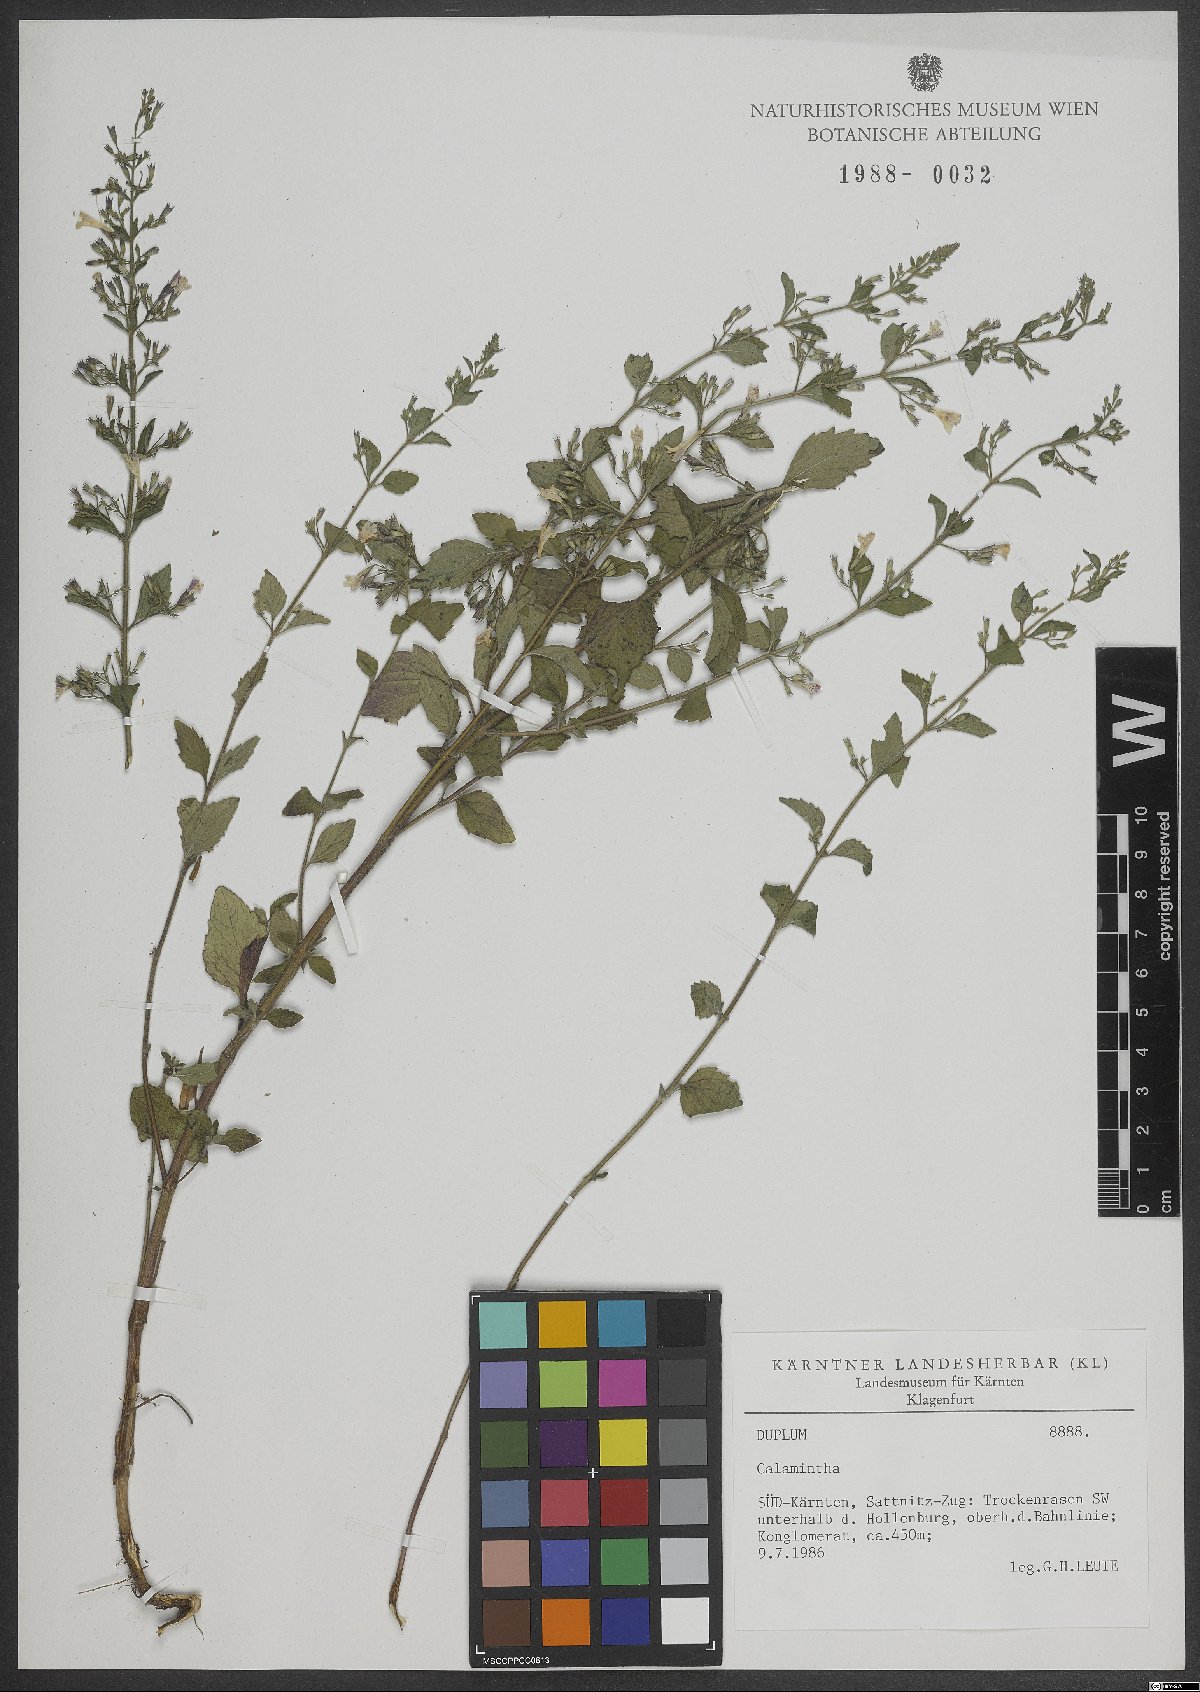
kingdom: Plantae
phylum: Tracheophyta
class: Magnoliopsida
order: Lamiales
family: Lamiaceae
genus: Calamintha
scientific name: Calamintha
